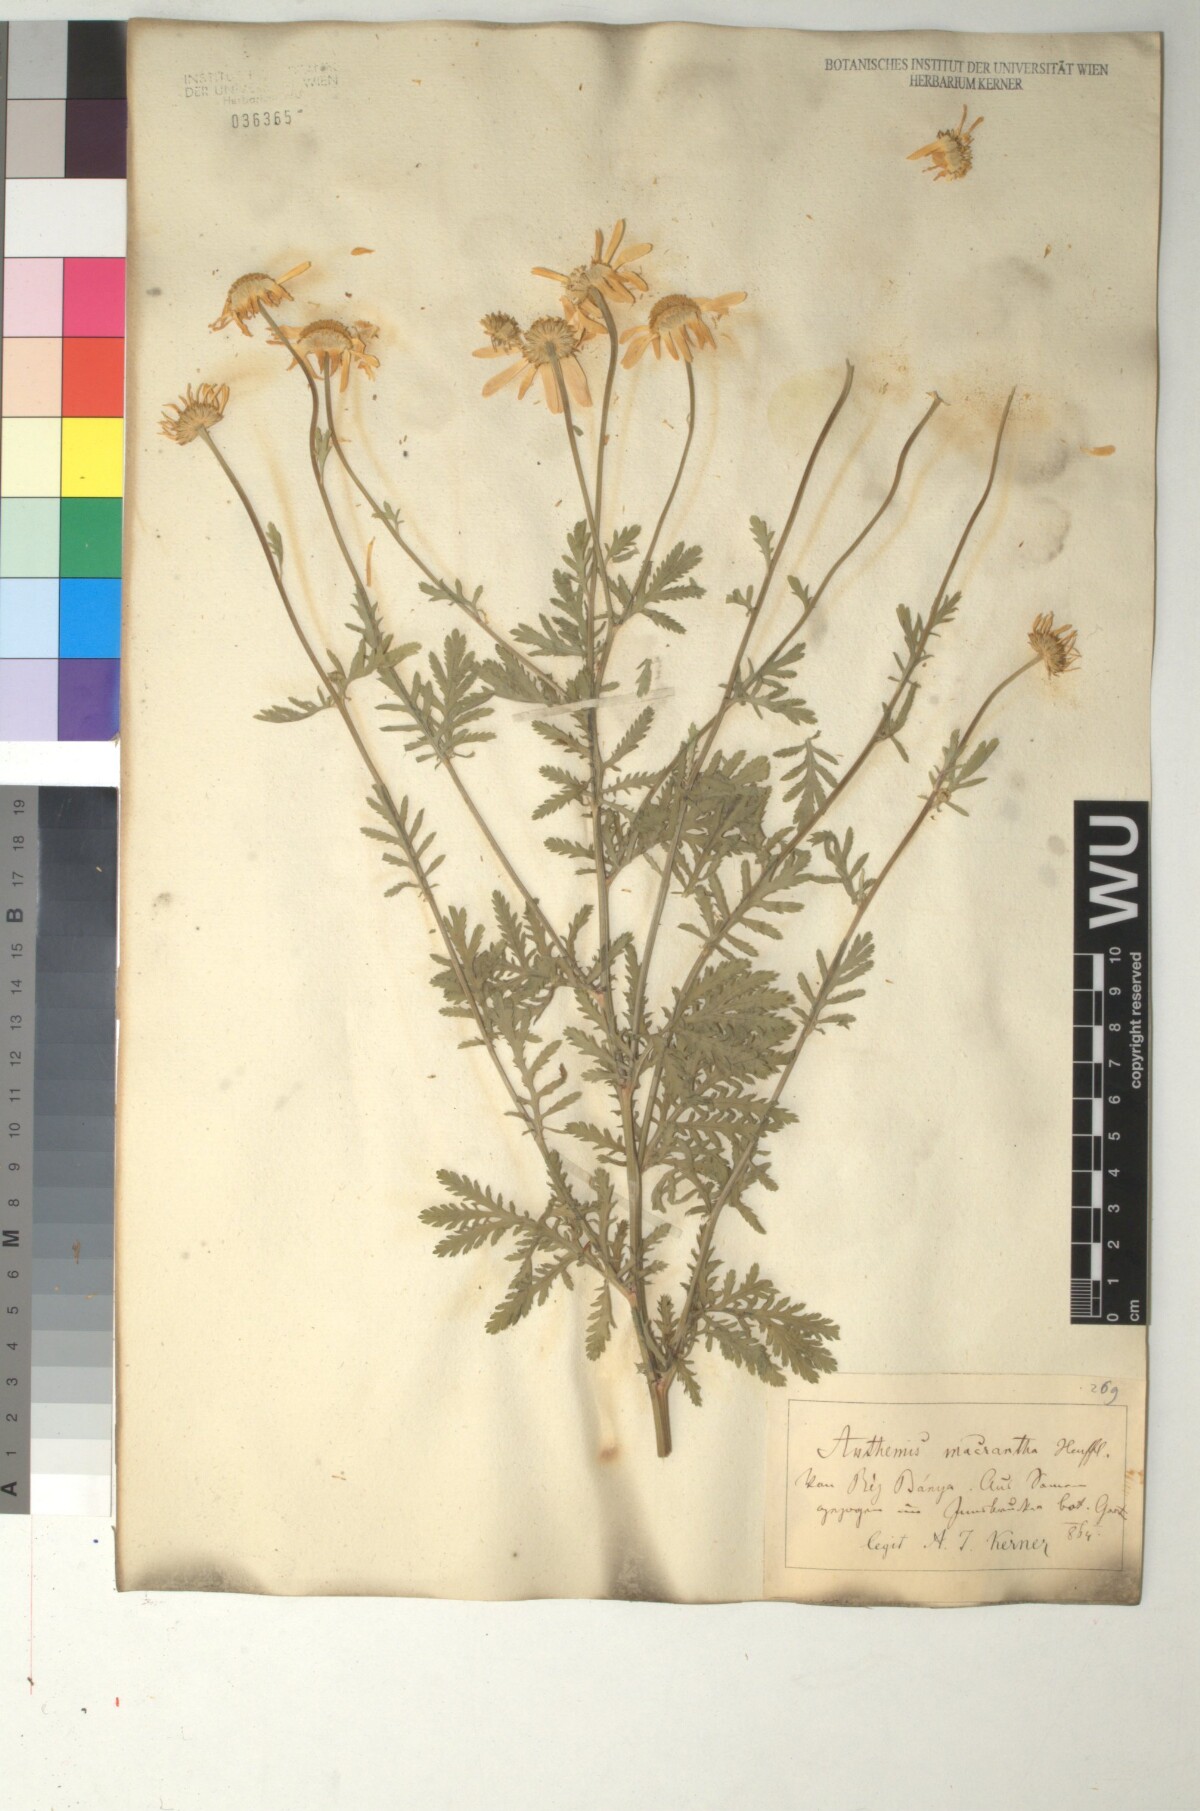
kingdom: Plantae
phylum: Tracheophyta
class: Magnoliopsida
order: Asterales
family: Asteraceae
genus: Cota
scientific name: Cota macrantha
